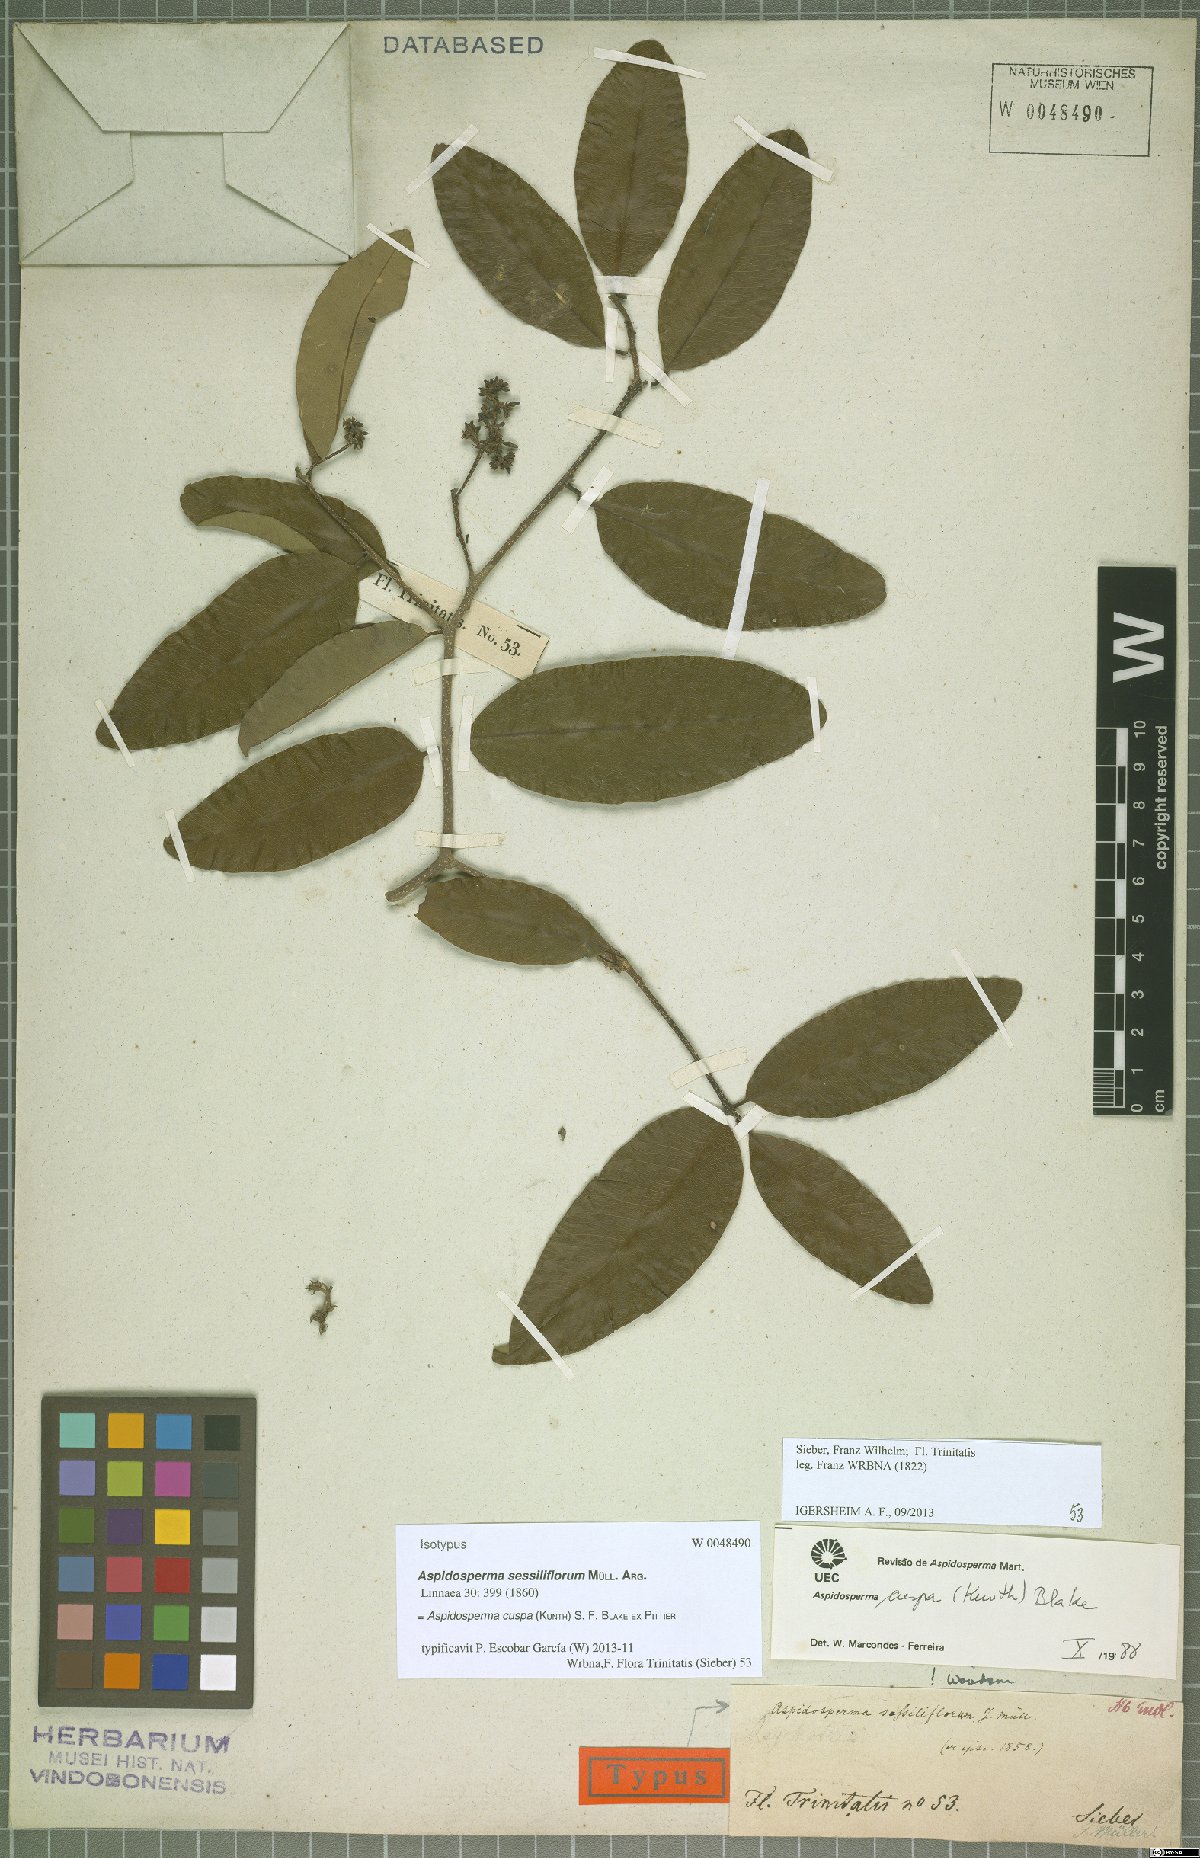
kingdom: Plantae
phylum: Tracheophyta
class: Magnoliopsida
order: Gentianales
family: Apocynaceae
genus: Aspidosperma
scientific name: Aspidosperma cuspa
